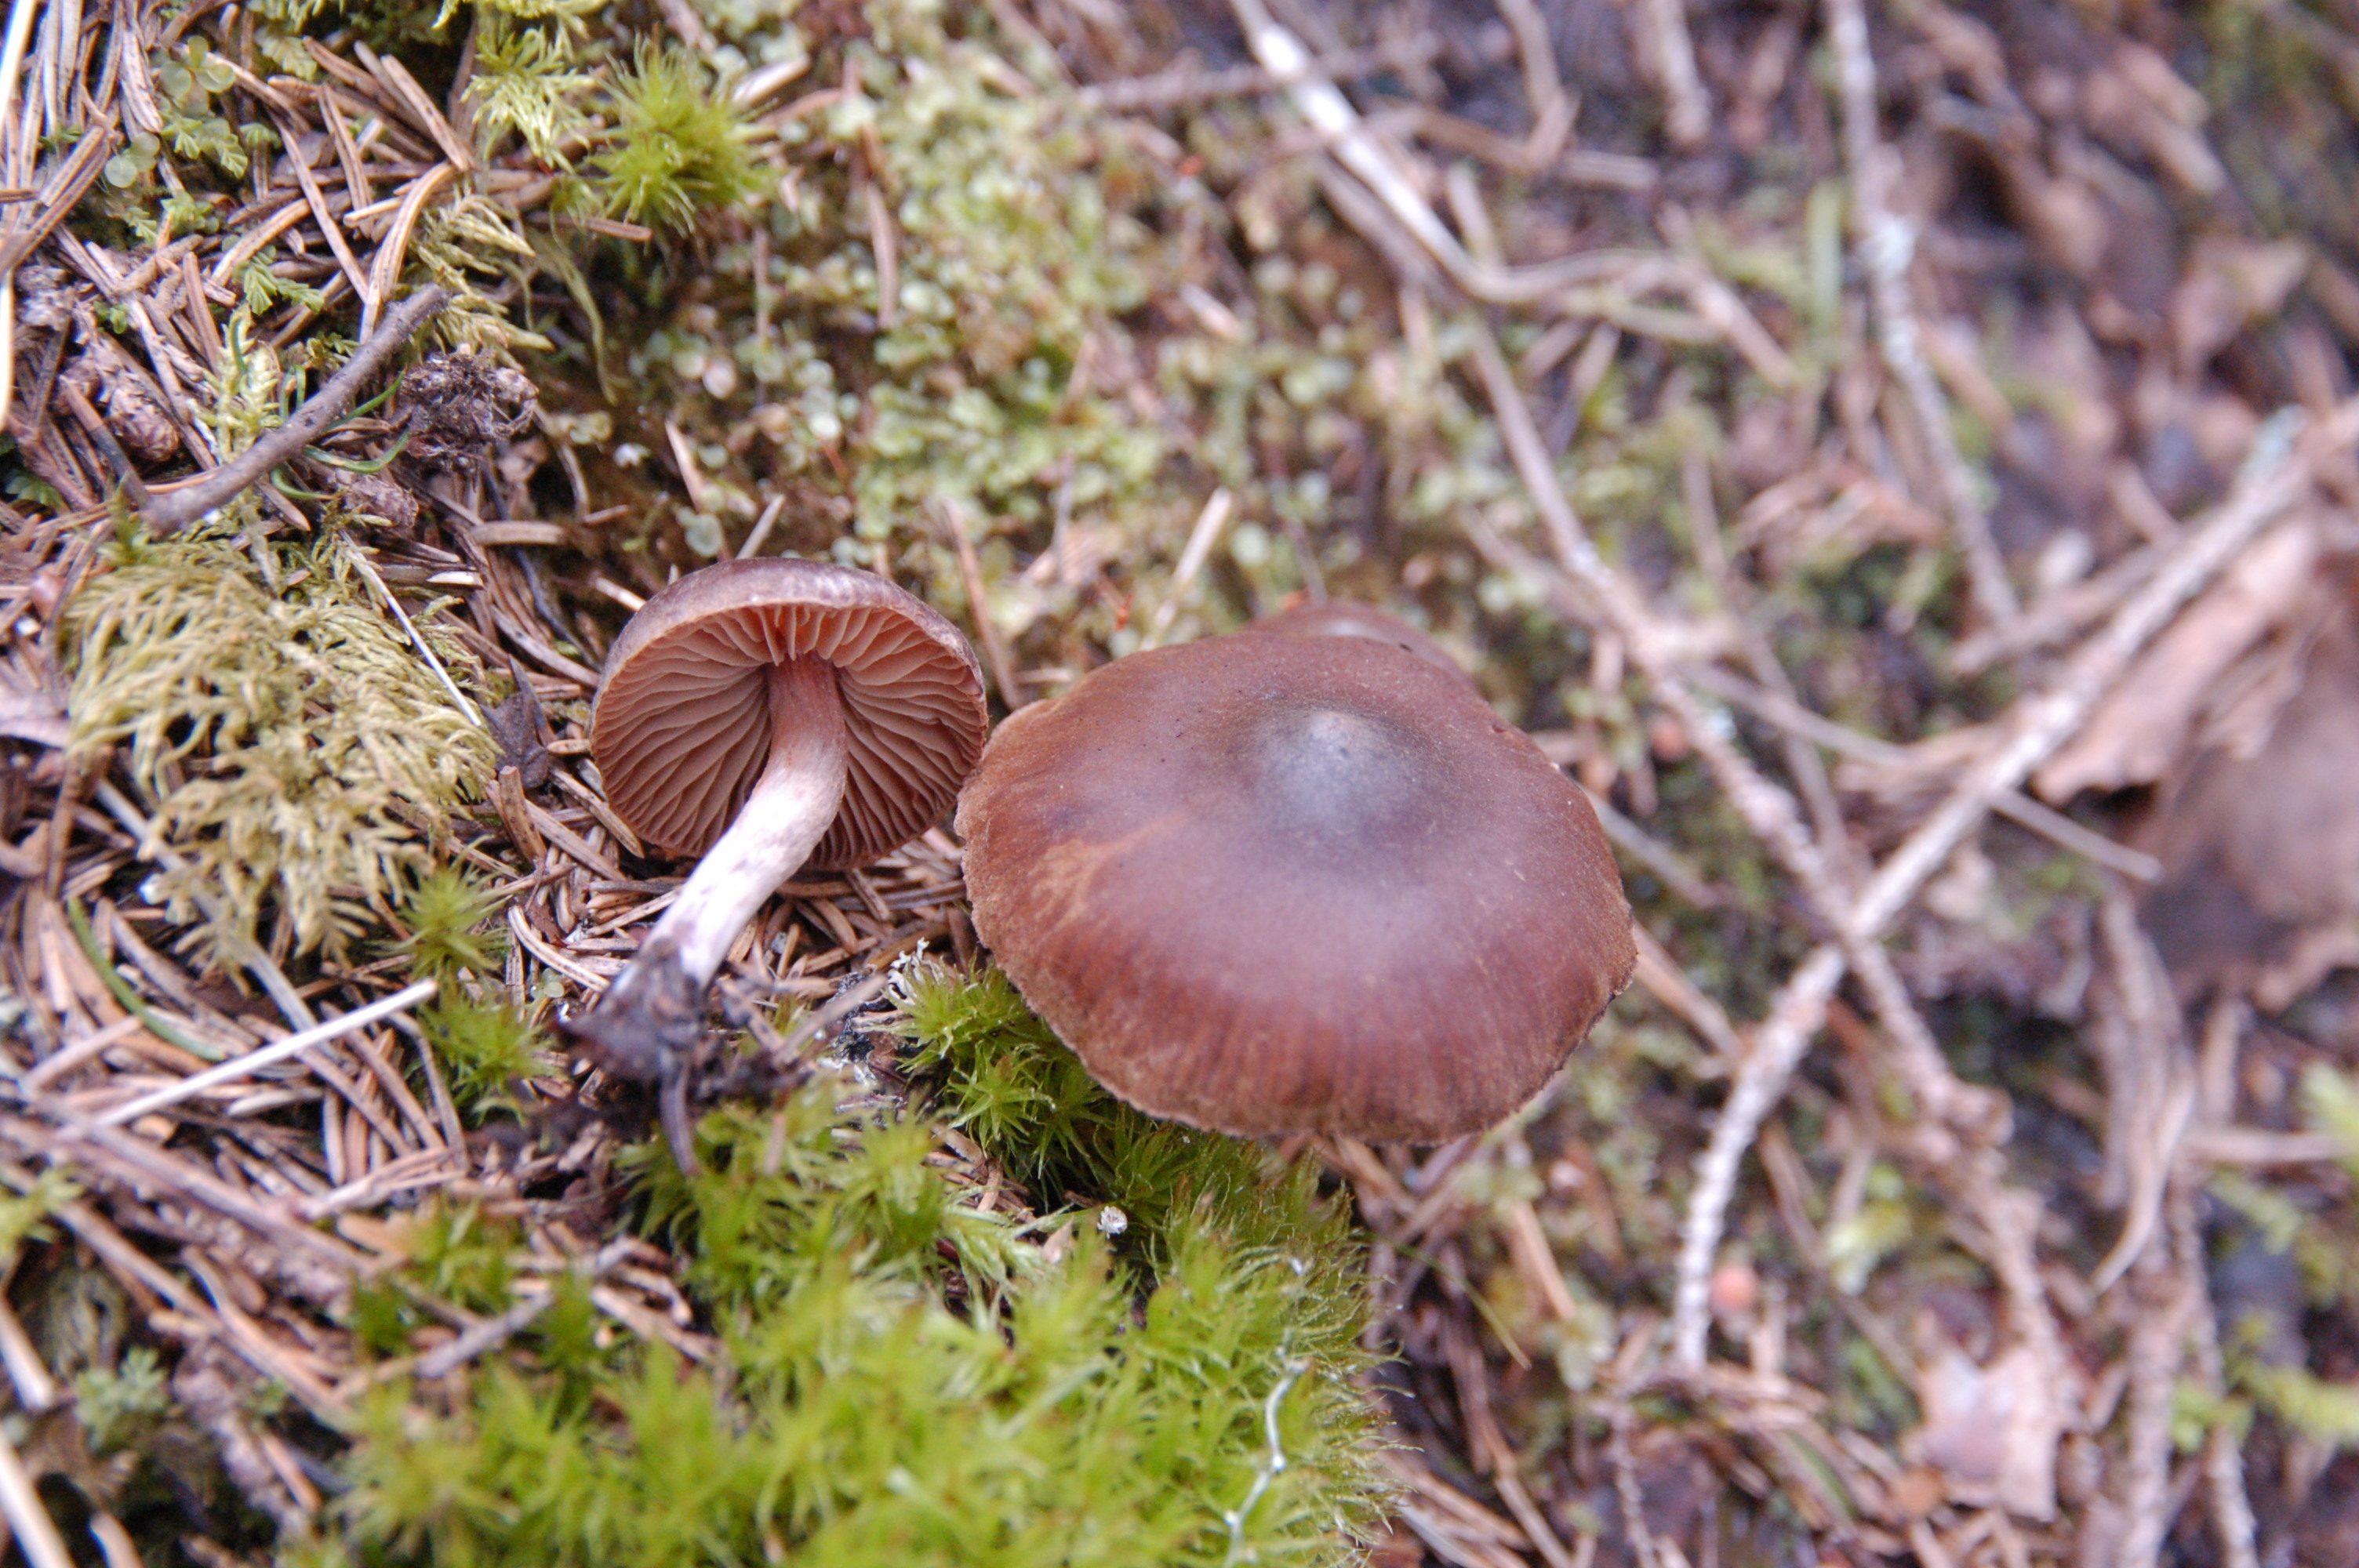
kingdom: Fungi
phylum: Basidiomycota
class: Agaricomycetes
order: Agaricales
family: Cortinariaceae
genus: Cortinarius
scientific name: Cortinarius
